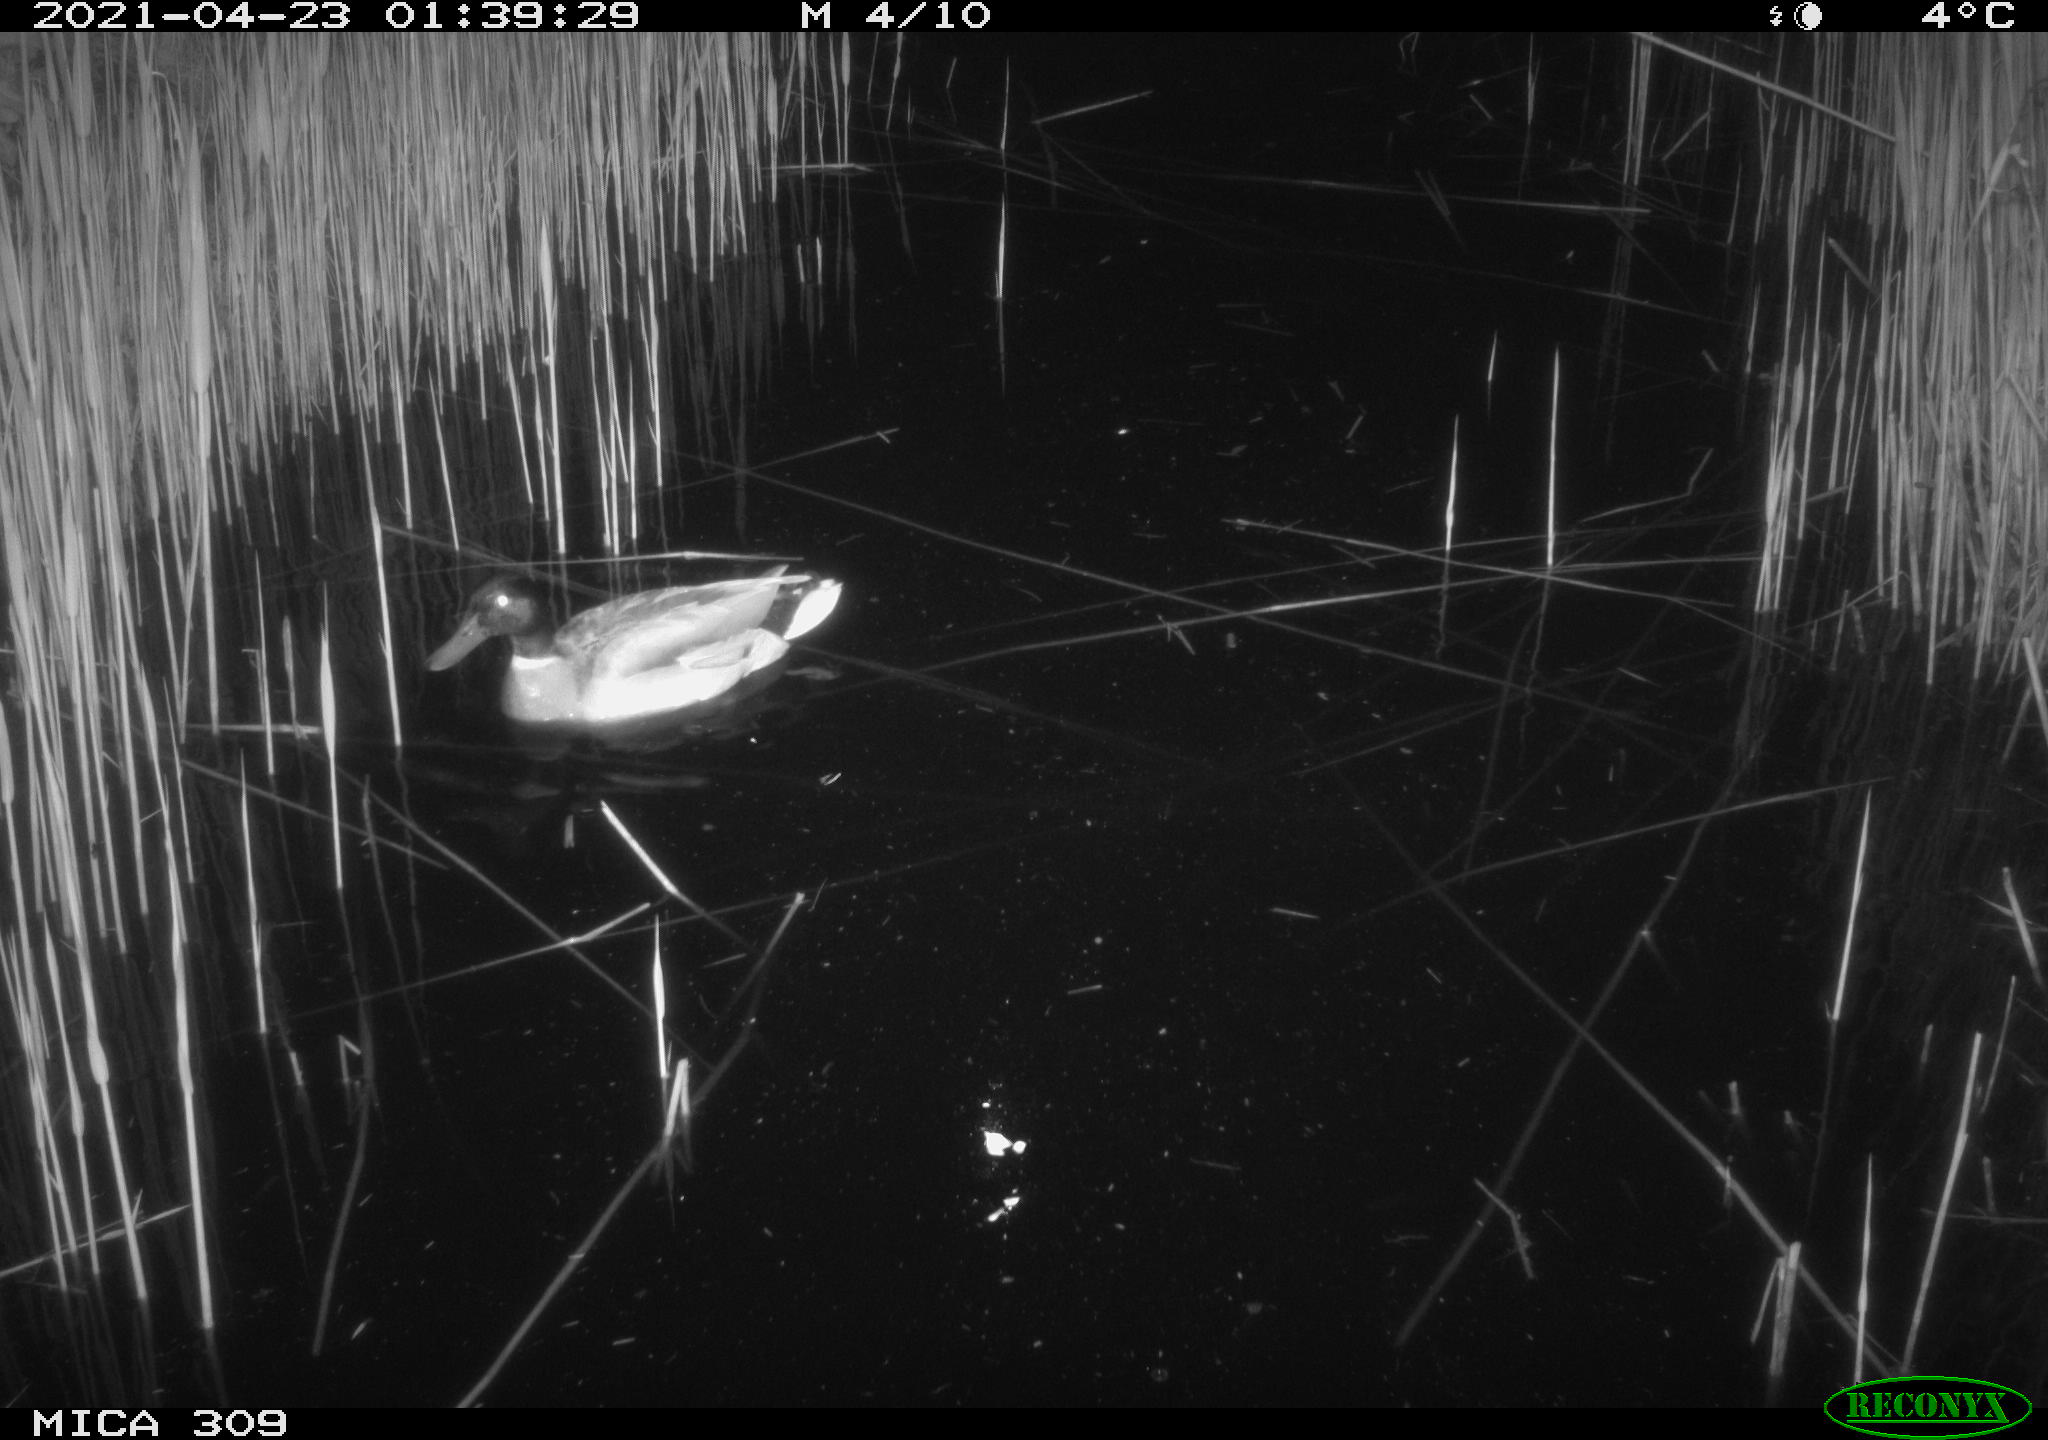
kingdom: Animalia
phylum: Chordata
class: Aves
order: Gruiformes
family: Rallidae
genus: Gallinula
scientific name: Gallinula chloropus
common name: Common moorhen
